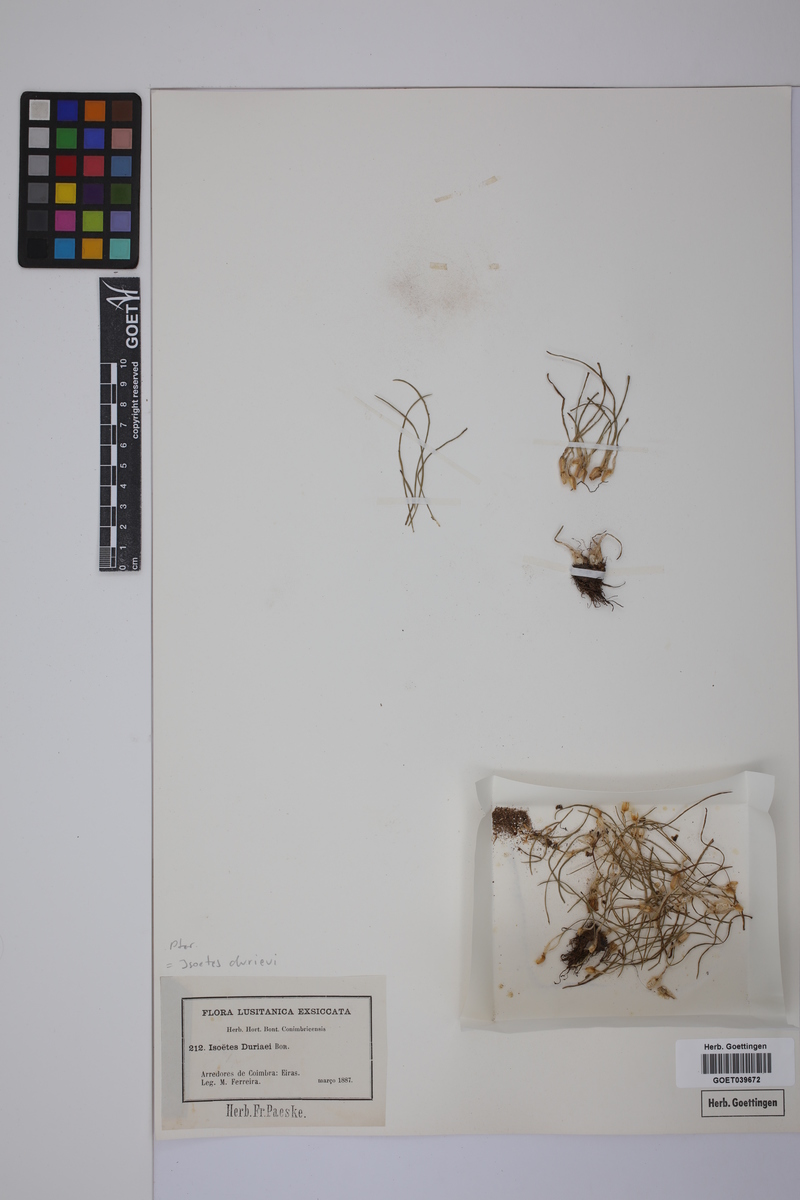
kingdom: Plantae
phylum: Tracheophyta
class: Lycopodiopsida
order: Isoetales
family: Isoetaceae
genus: Isoetes
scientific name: Isoetes duriei
